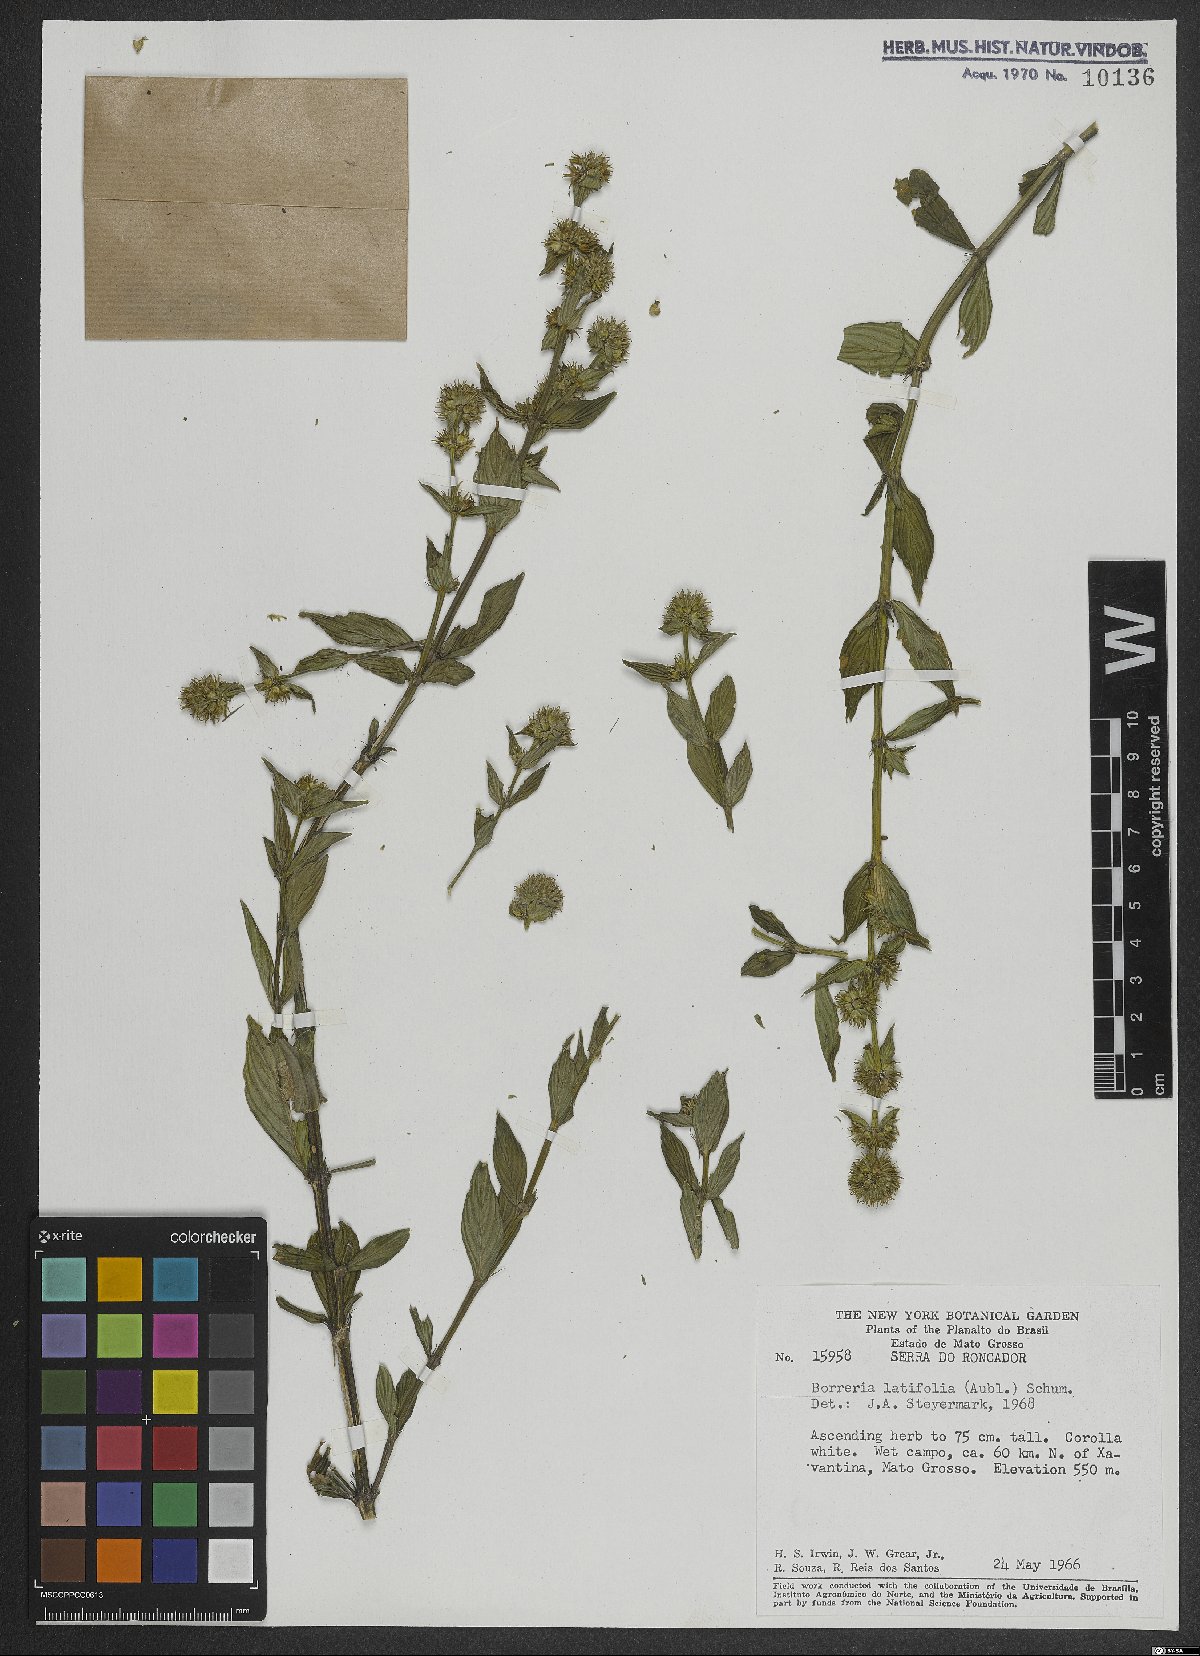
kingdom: Plantae
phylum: Tracheophyta
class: Magnoliopsida
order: Gentianales
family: Rubiaceae
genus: Spermacoce
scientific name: Spermacoce latifolia
